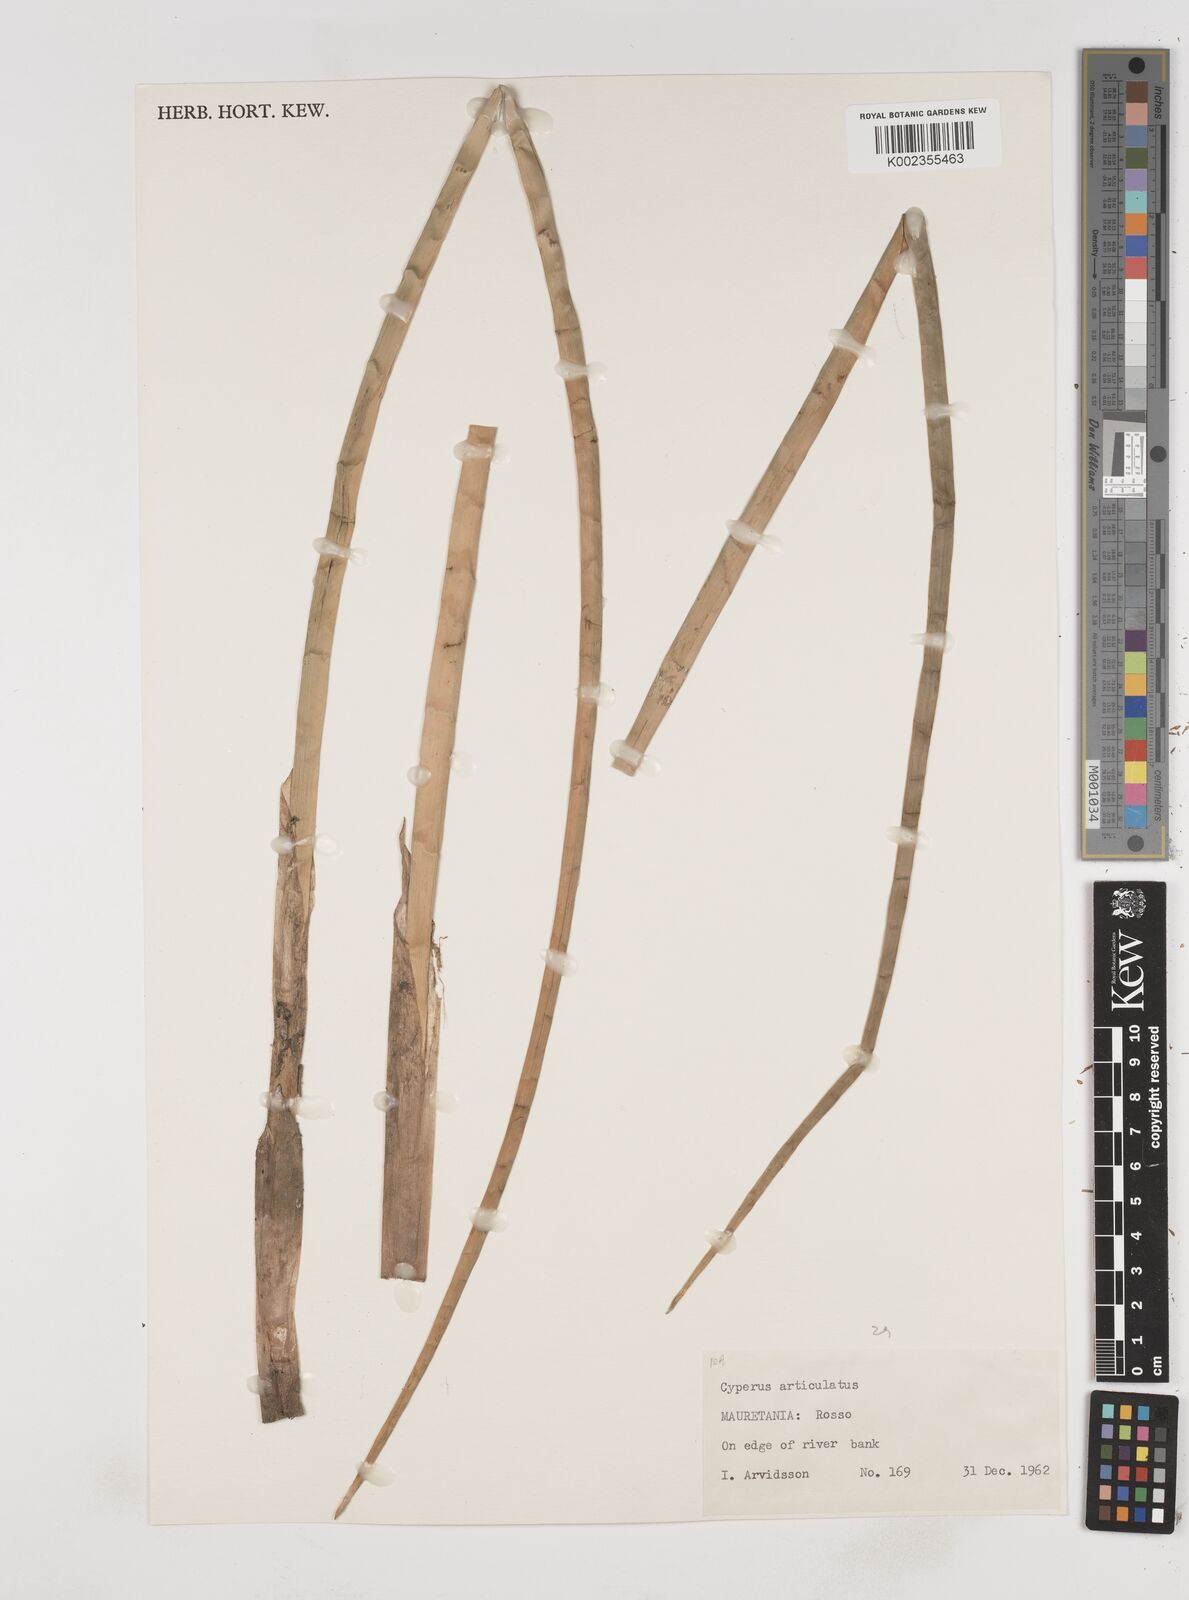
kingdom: Plantae
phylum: Tracheophyta
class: Liliopsida
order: Poales
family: Cyperaceae
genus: Cyperus
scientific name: Cyperus articulatus
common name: Jointed flatsedge
